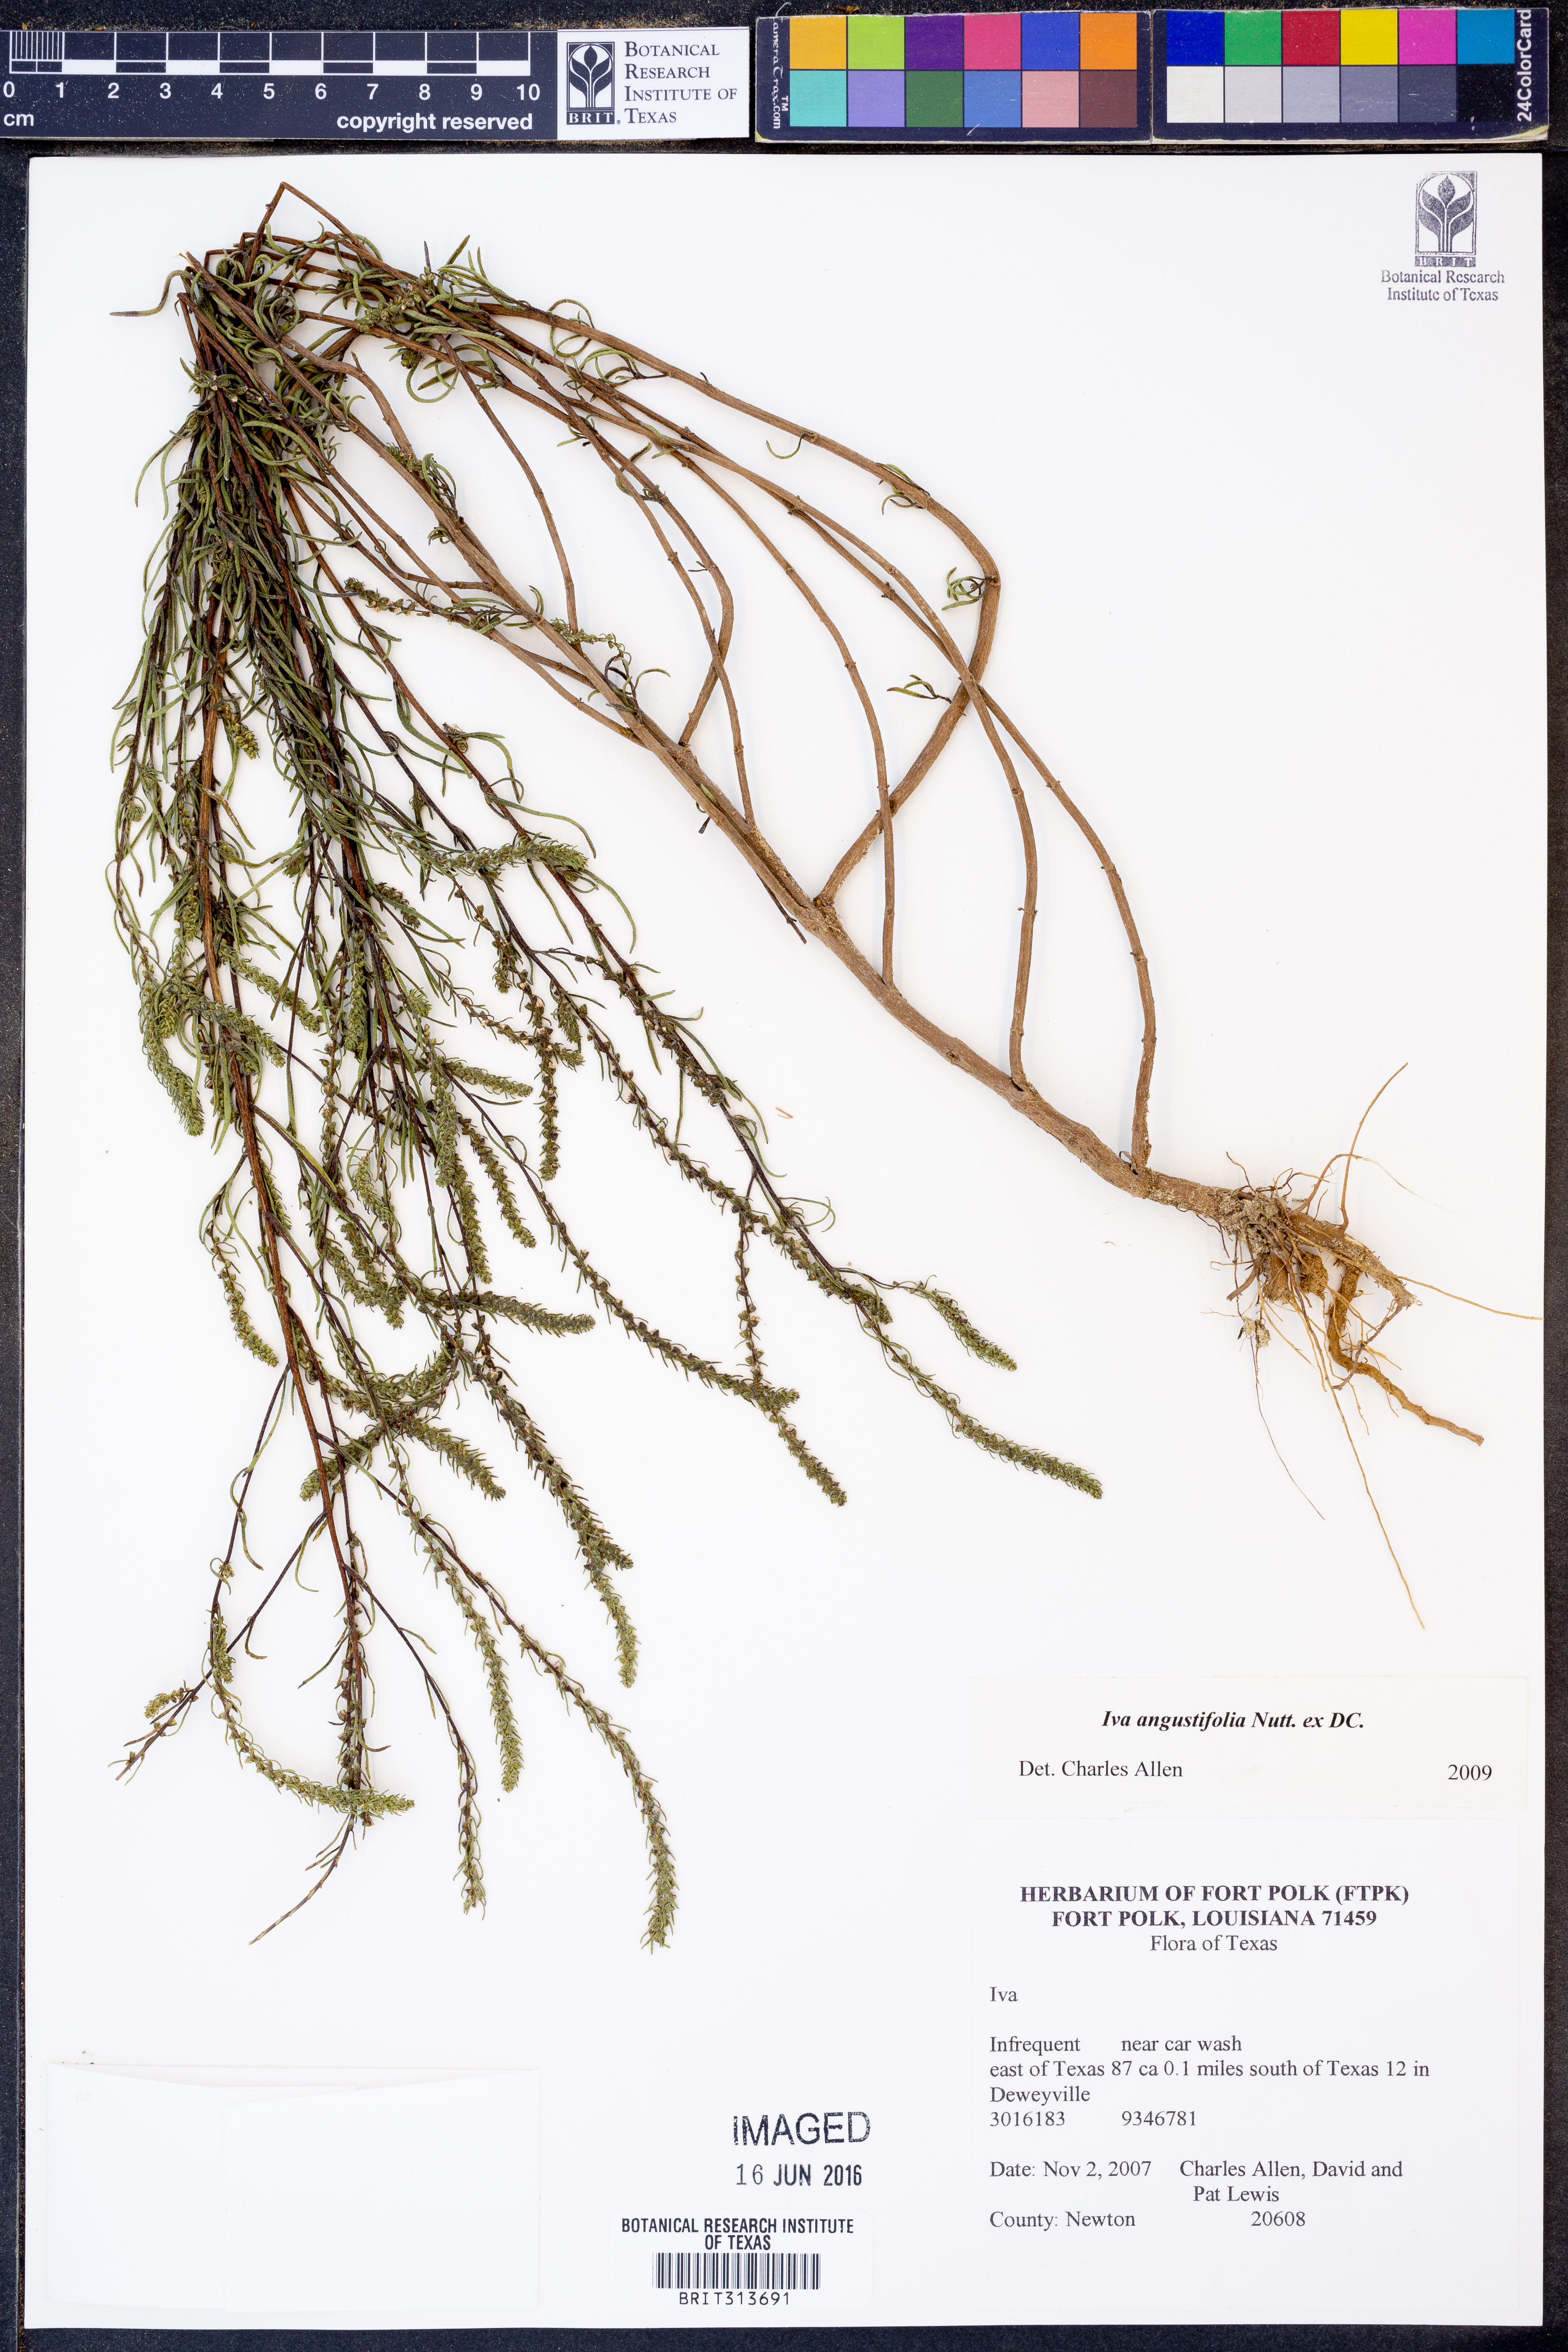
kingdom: Plantae
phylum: Tracheophyta
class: Magnoliopsida
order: Asterales
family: Asteraceae
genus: Iva
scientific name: Iva asperifolia
